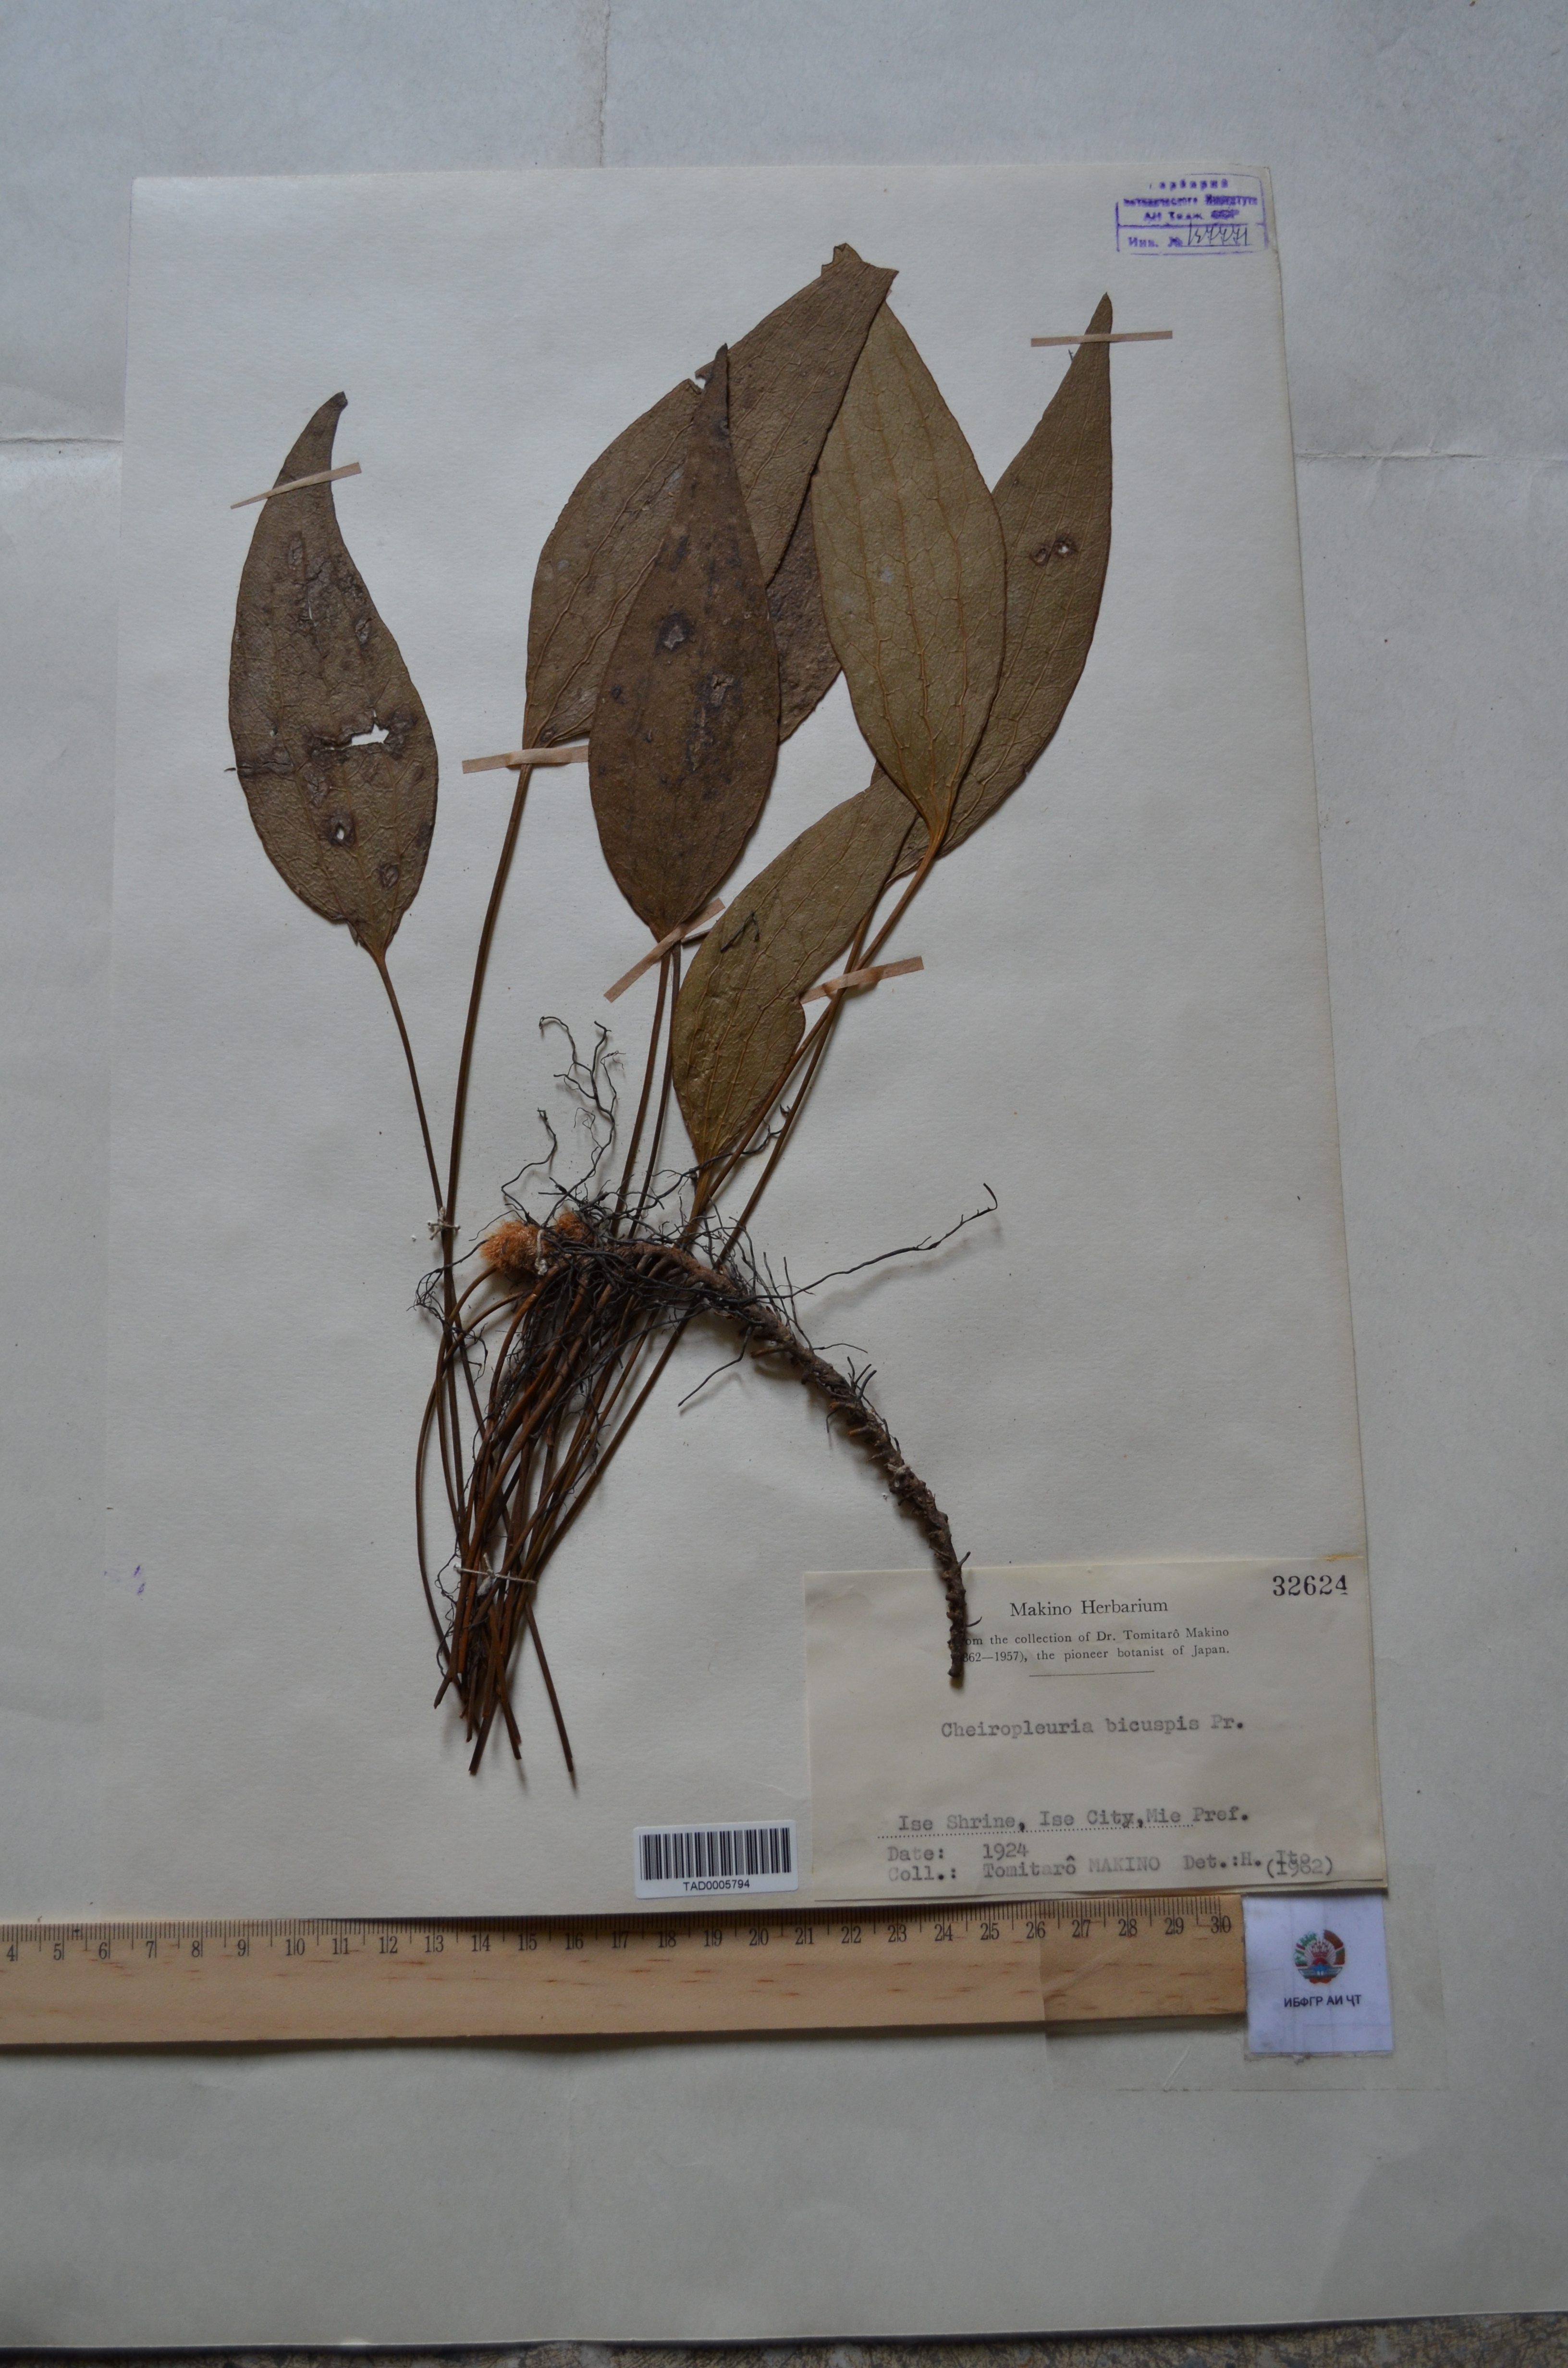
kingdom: Plantae
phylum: Tracheophyta
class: Polypodiopsida
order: Gleicheniales
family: Dipteridaceae
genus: Cheiropleuria
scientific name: Cheiropleuria bicuspis
